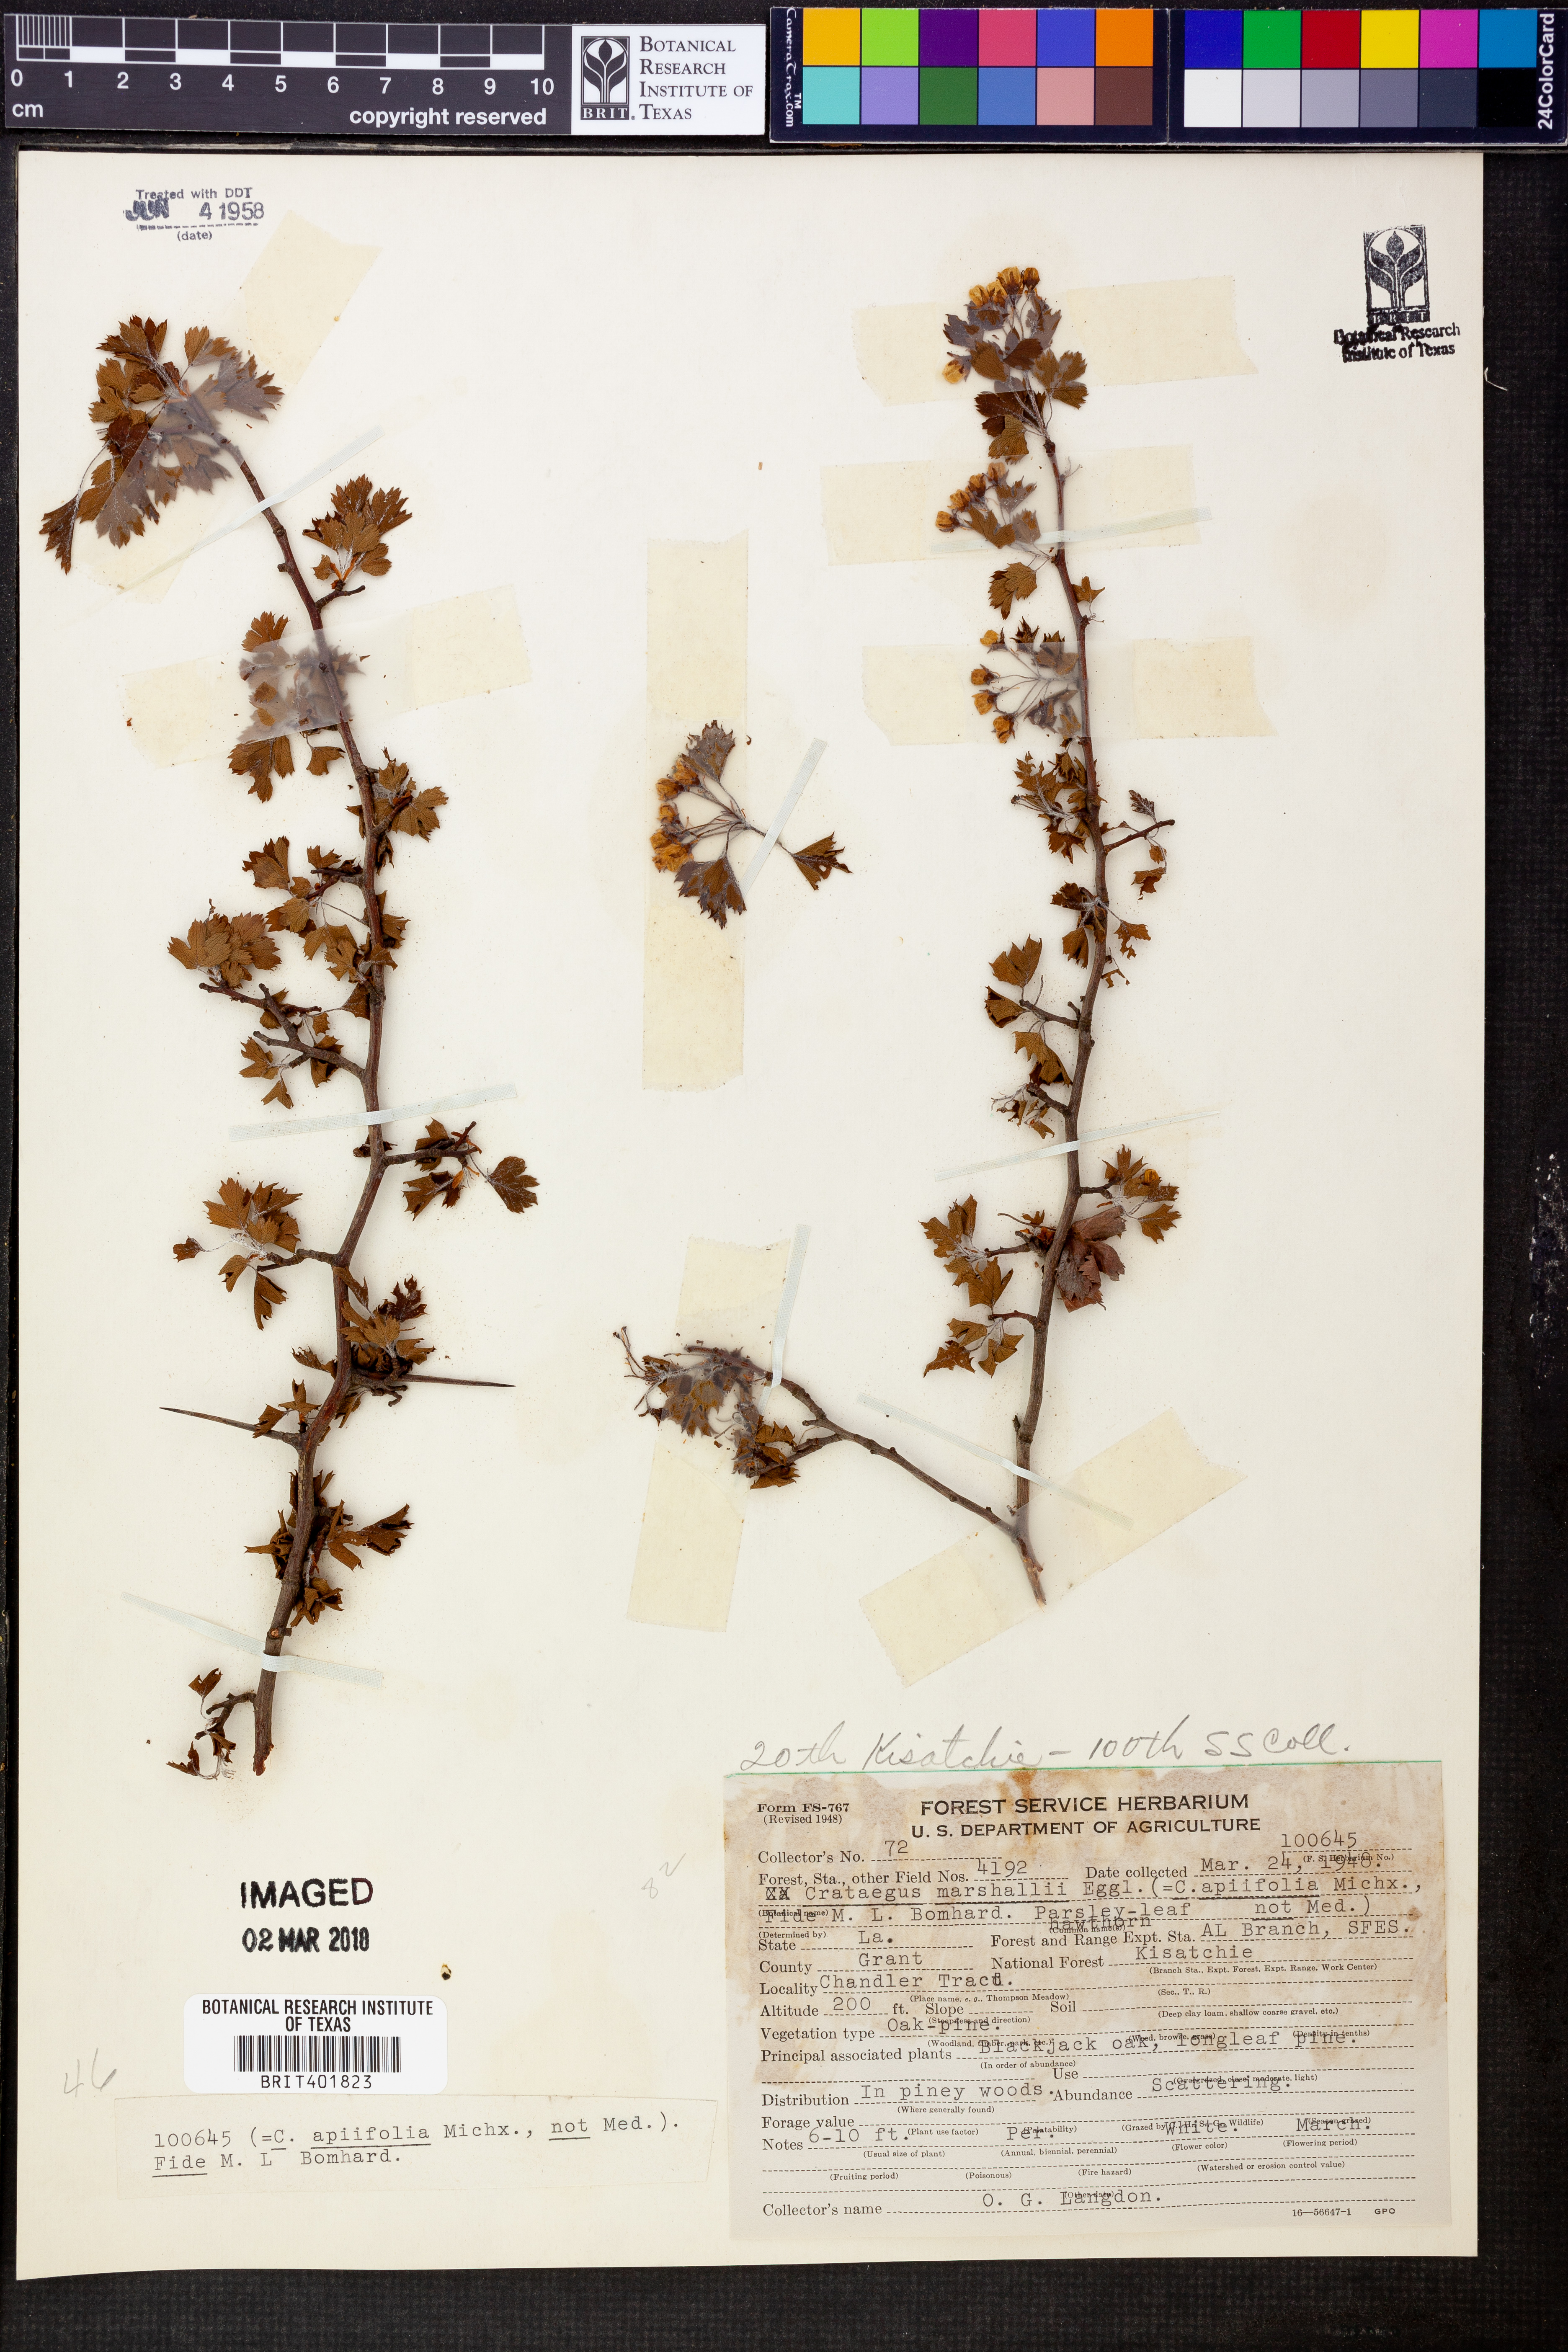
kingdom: Plantae
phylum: Tracheophyta
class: Magnoliopsida
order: Rosales
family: Rosaceae
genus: Crataegus
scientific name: Crataegus marshallii
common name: Parsley-hawthorn
